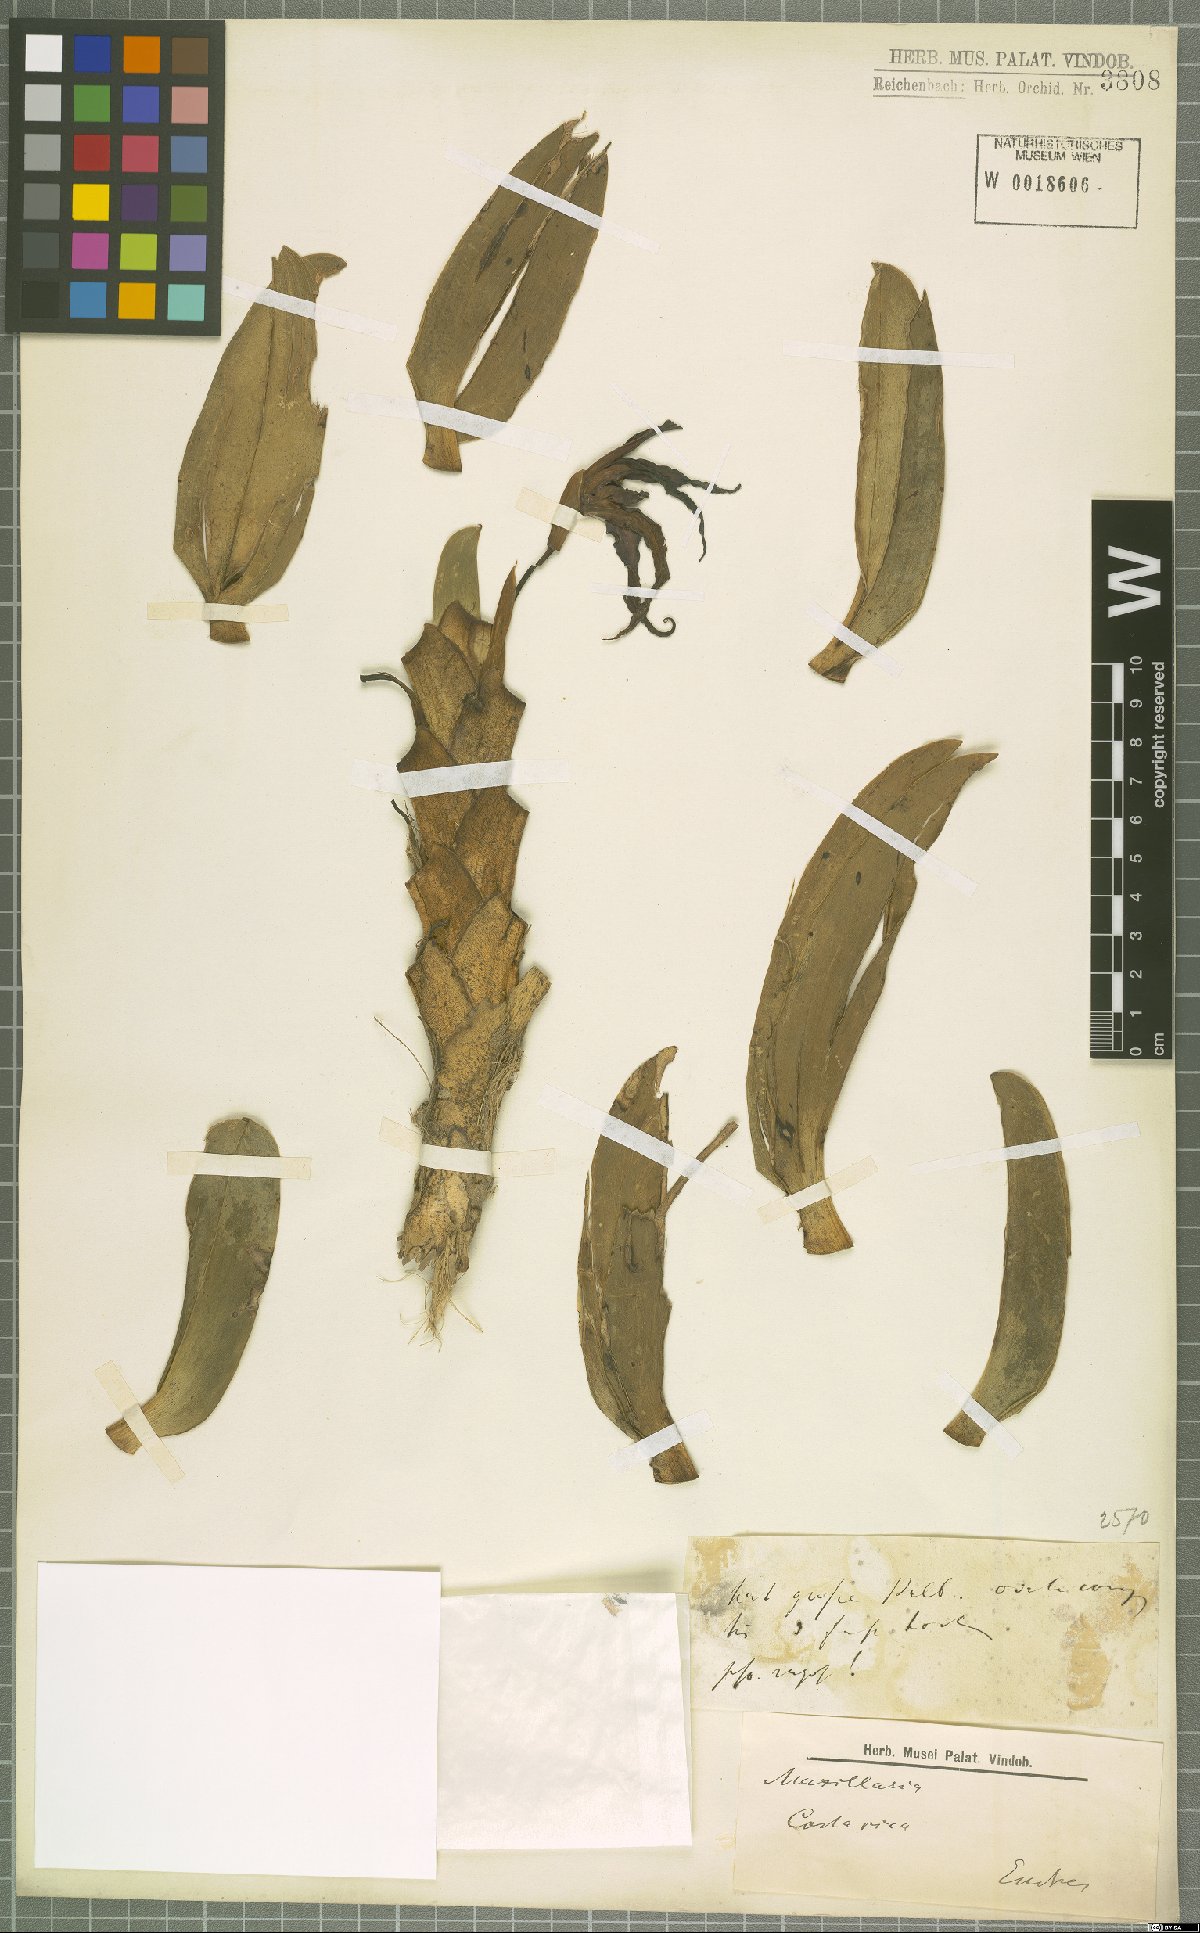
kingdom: Plantae
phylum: Tracheophyta
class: Liliopsida
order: Asparagales
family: Orchidaceae
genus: Maxillaria
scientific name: Maxillaria
